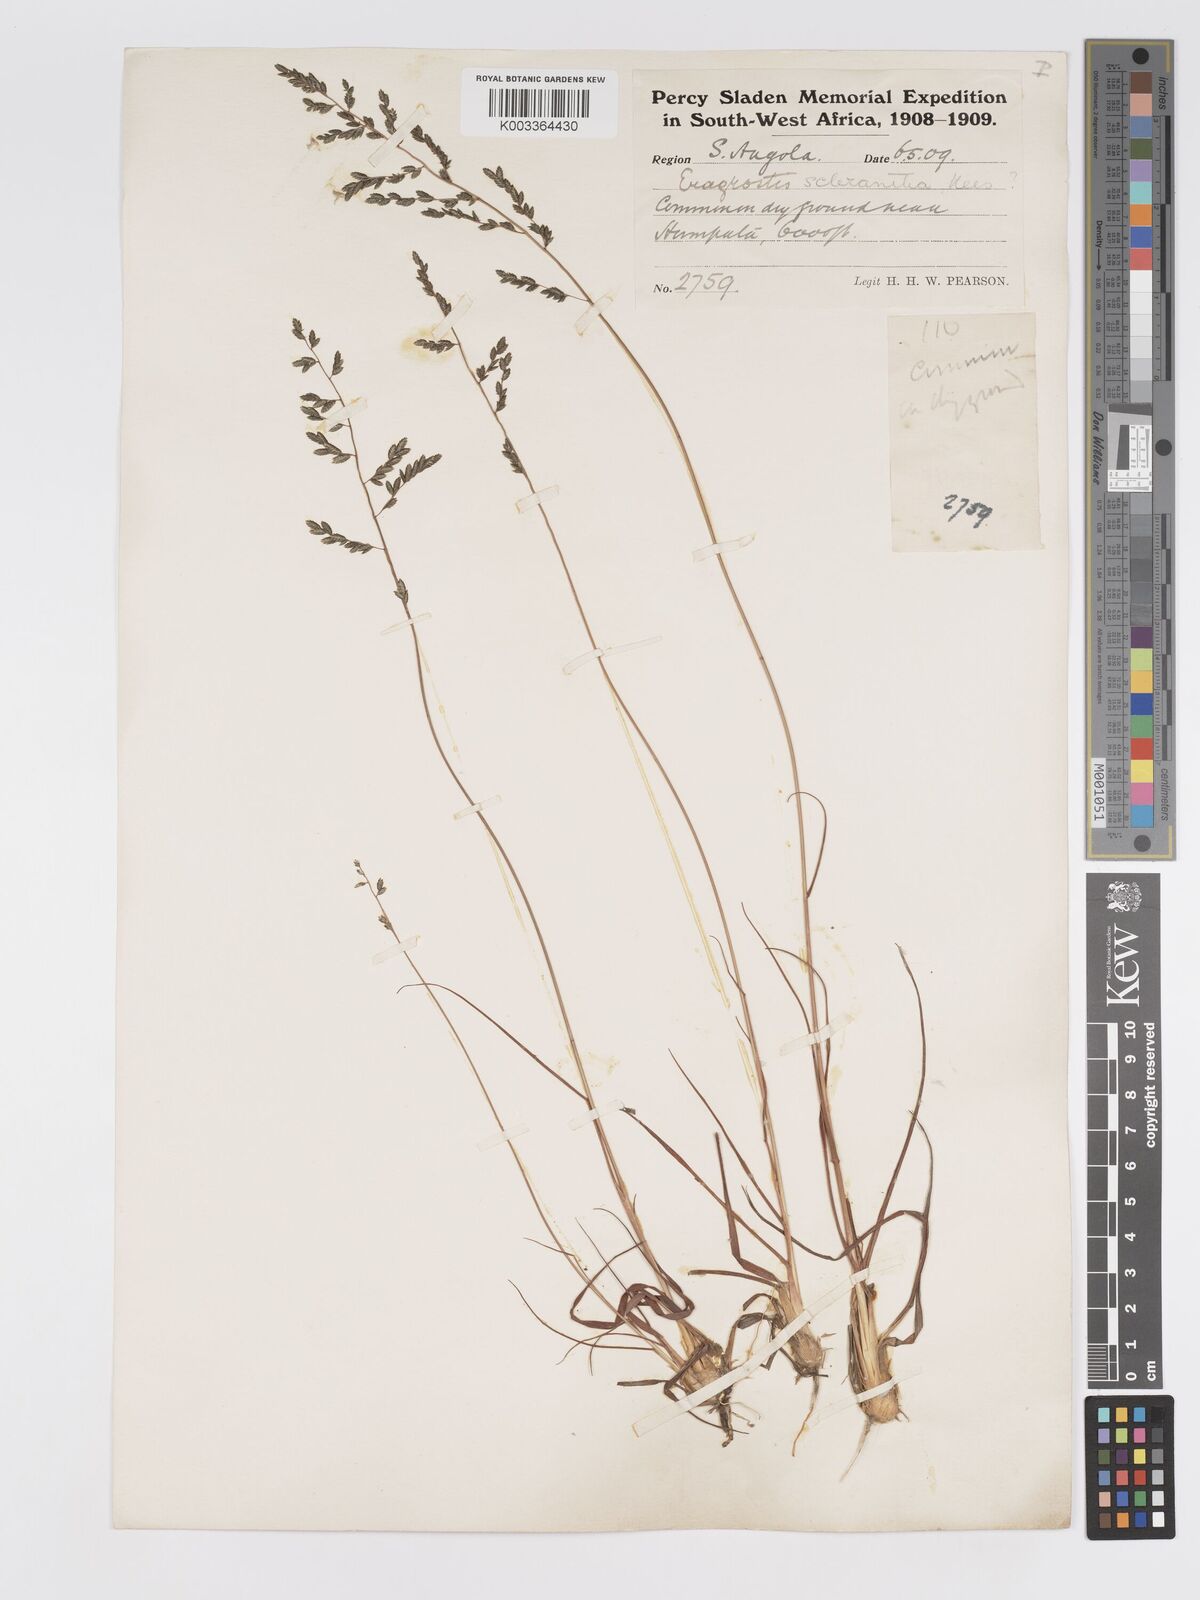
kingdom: Plantae
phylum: Tracheophyta
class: Liliopsida
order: Poales
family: Poaceae
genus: Eragrostis
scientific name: Eragrostis sclerantha
